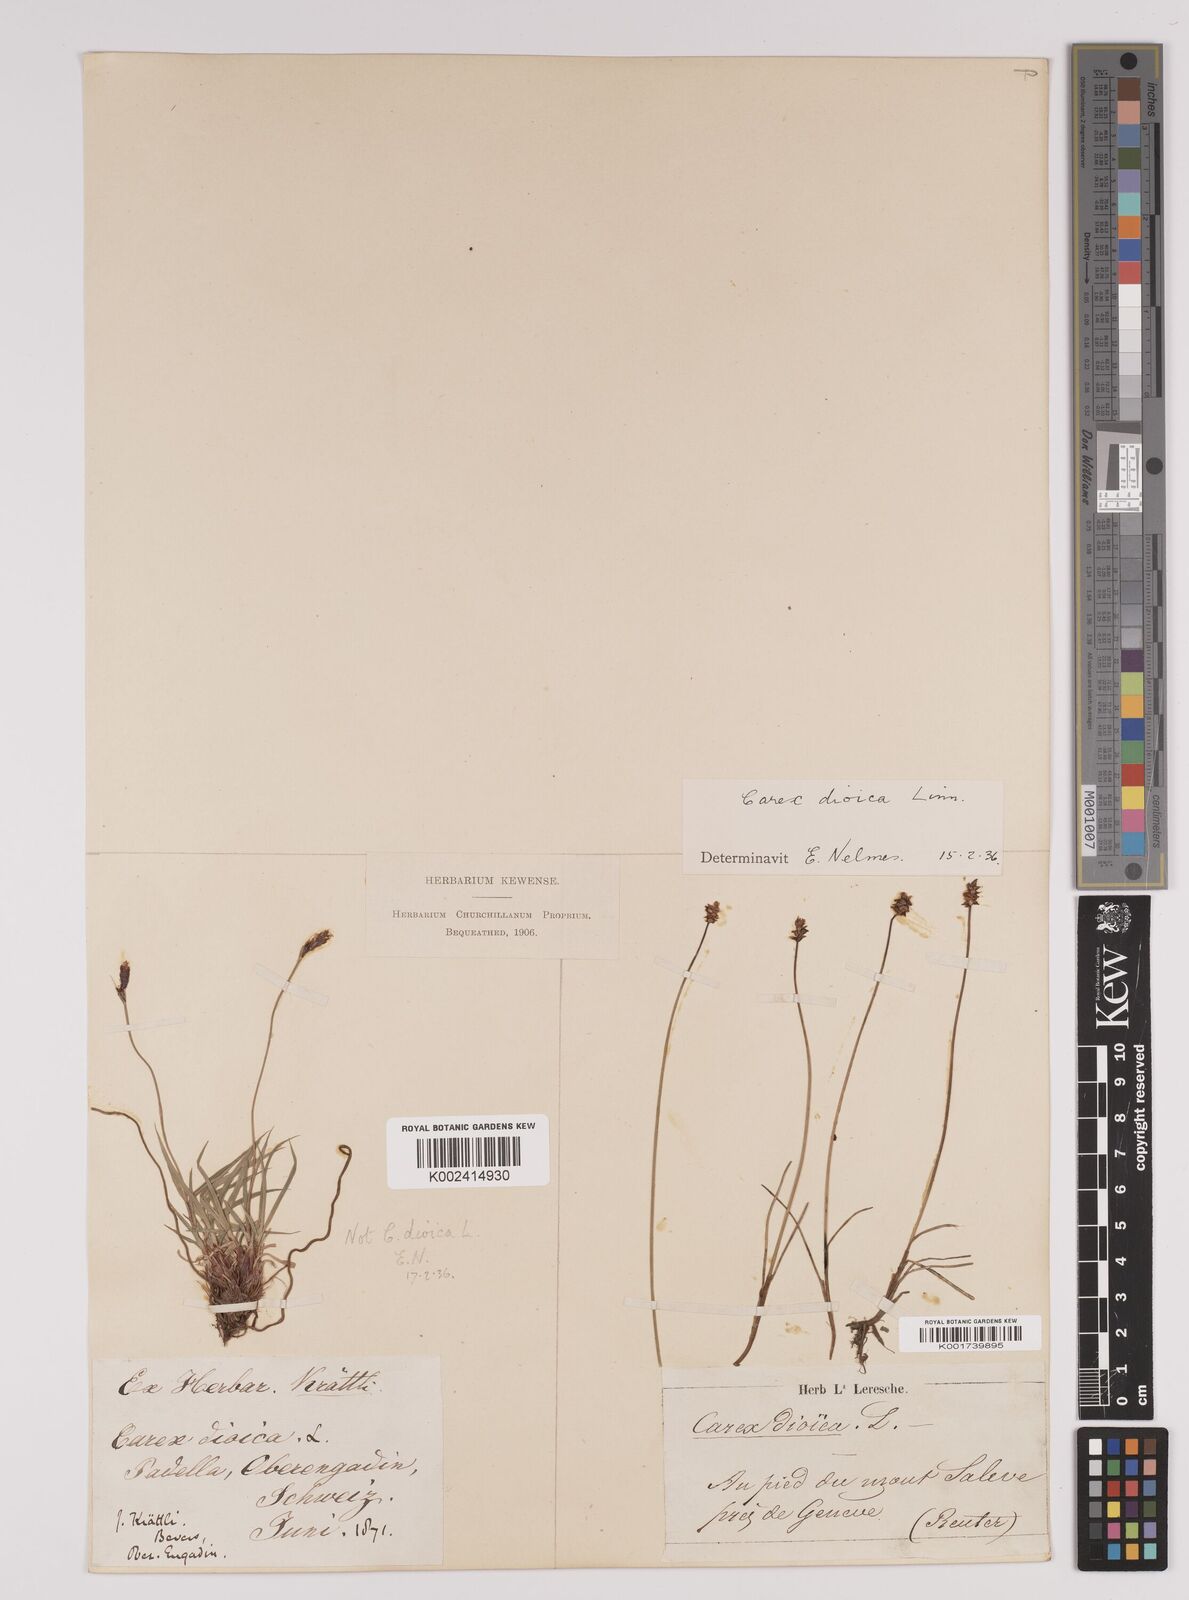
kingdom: Plantae
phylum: Tracheophyta
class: Liliopsida
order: Poales
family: Cyperaceae
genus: Carex
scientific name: Carex dioica
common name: Dioecious sedge
